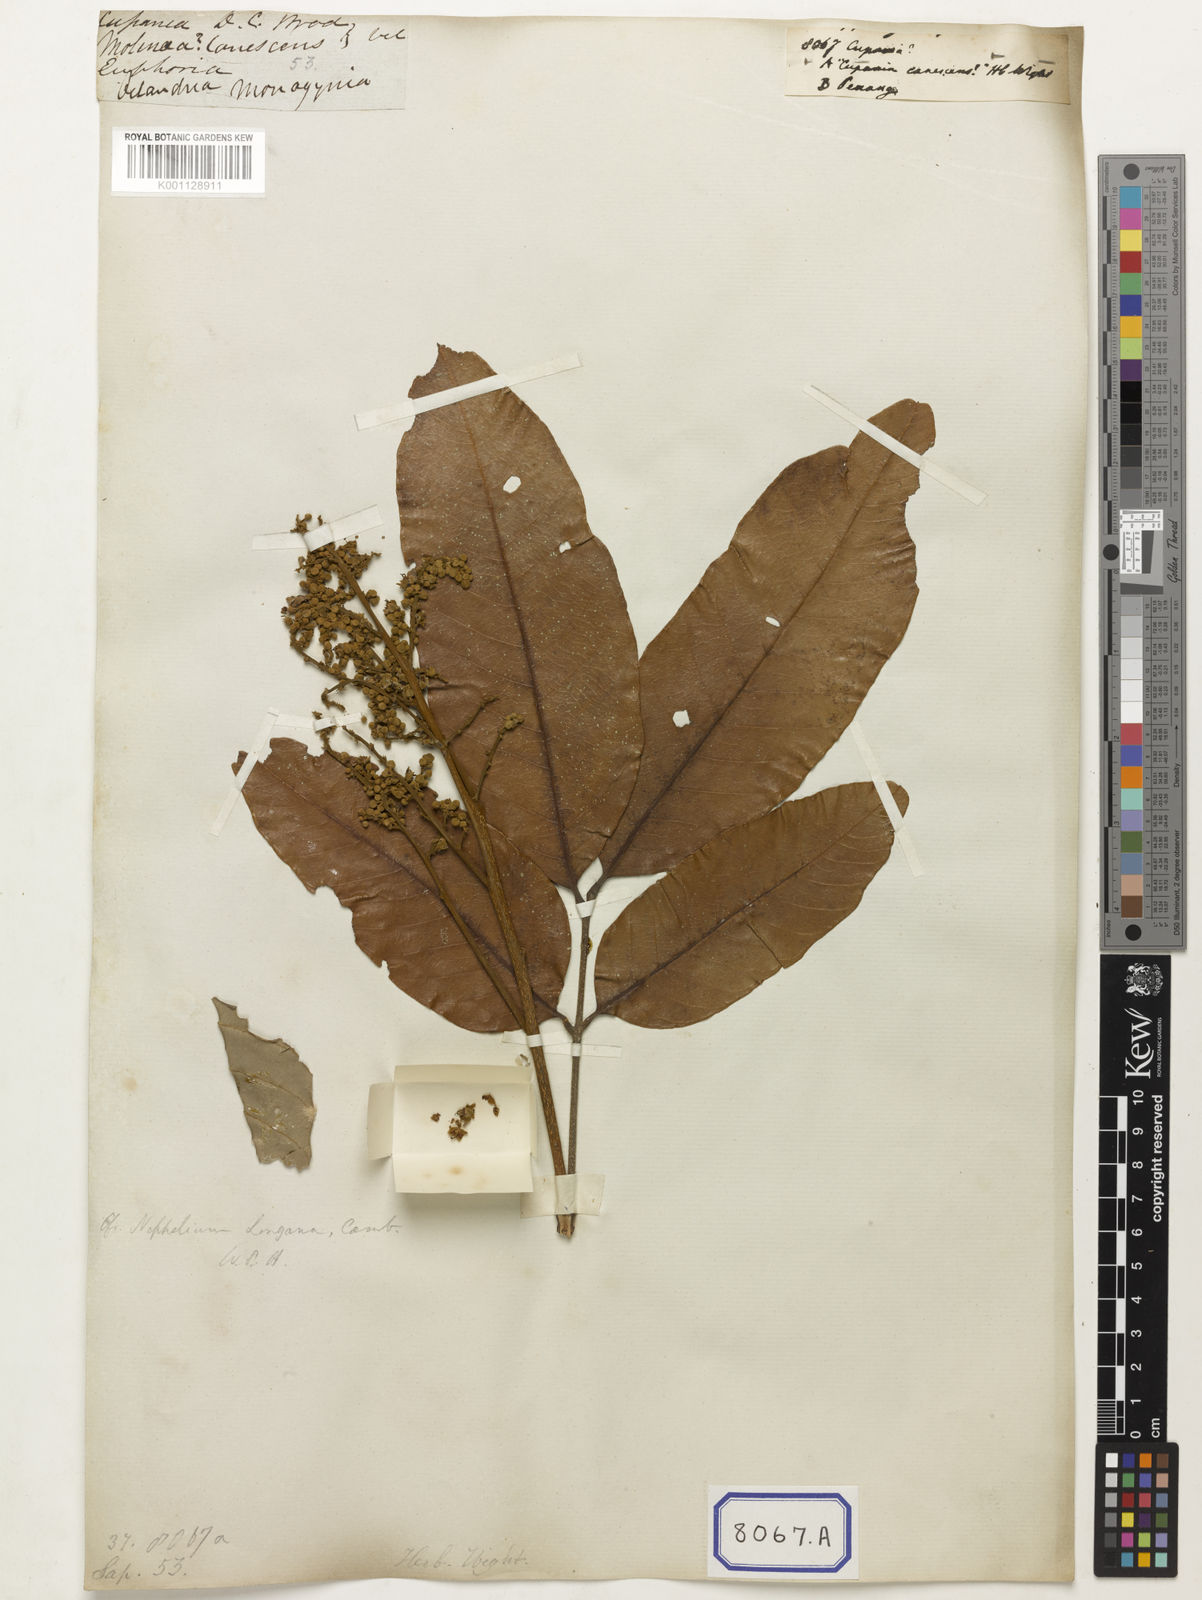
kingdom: Plantae
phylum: Tracheophyta
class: Magnoliopsida
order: Sapindales
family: Sapindaceae
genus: Cupania
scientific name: Cupania
